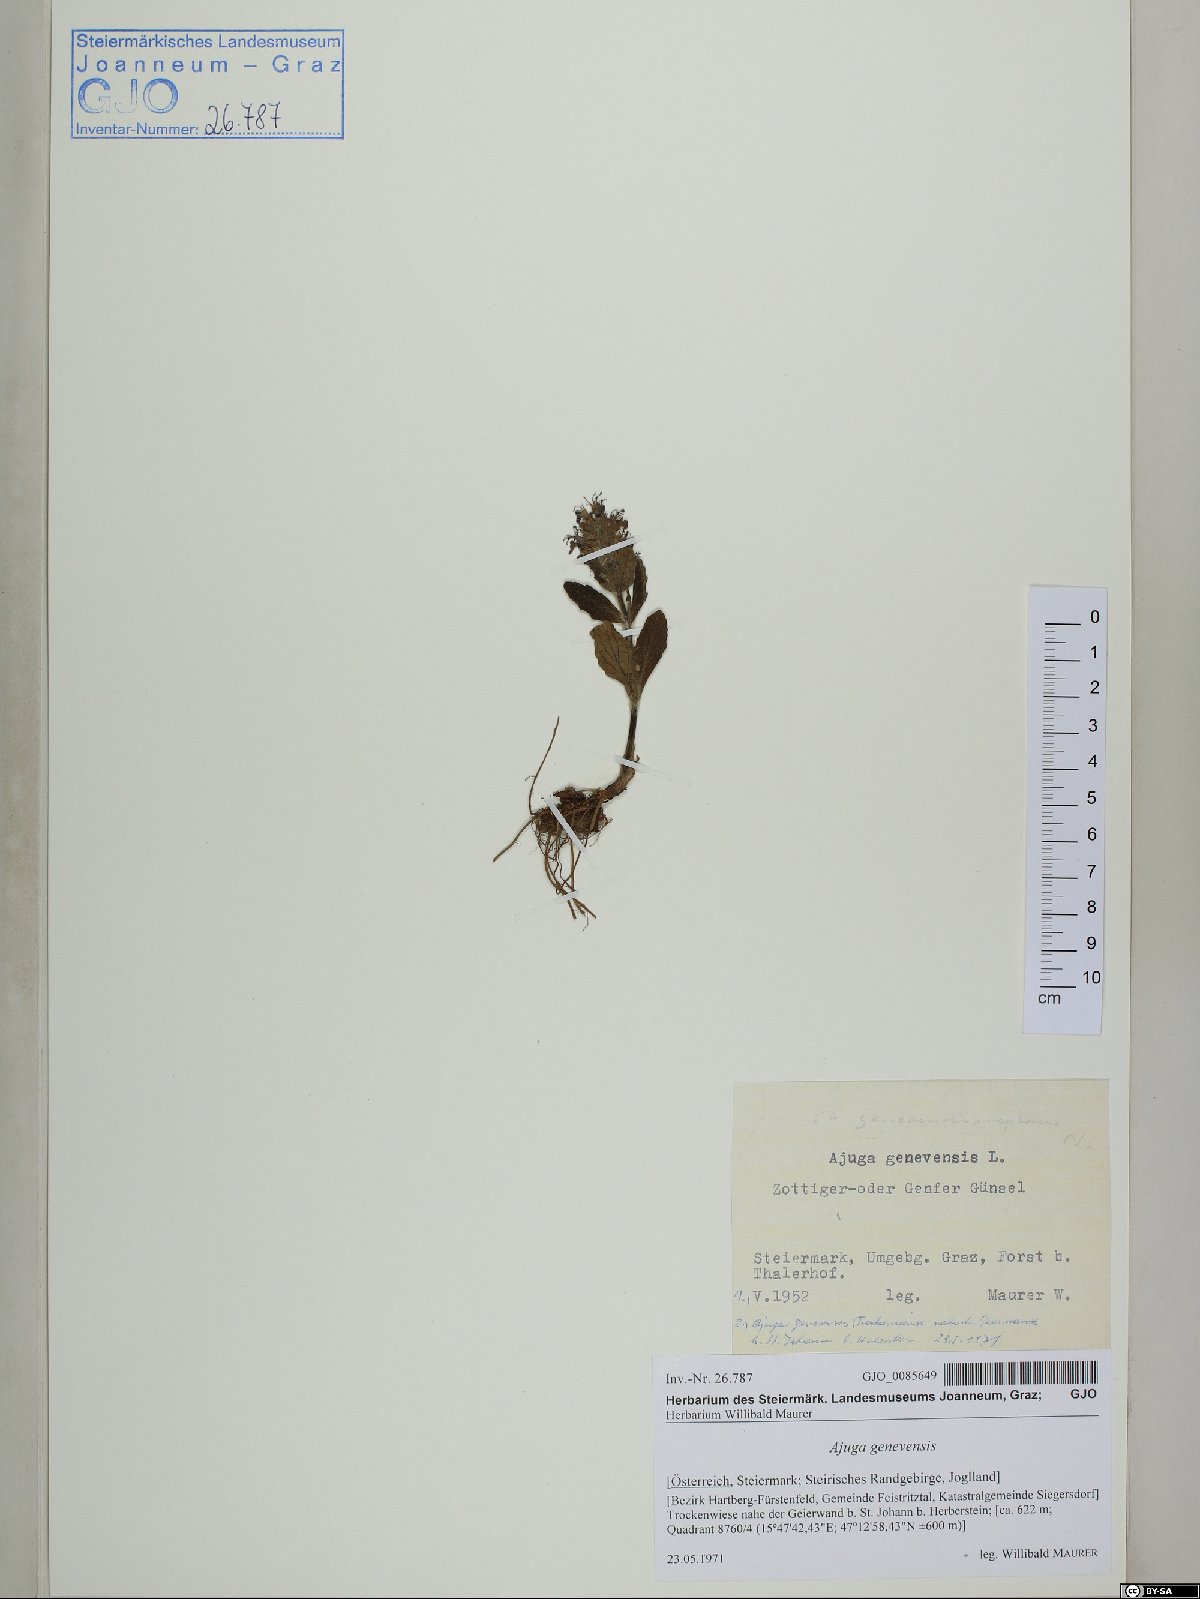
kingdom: Plantae
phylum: Tracheophyta
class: Magnoliopsida
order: Lamiales
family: Lamiaceae
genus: Ajuga
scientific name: Ajuga genevensis
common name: Blue bugle
